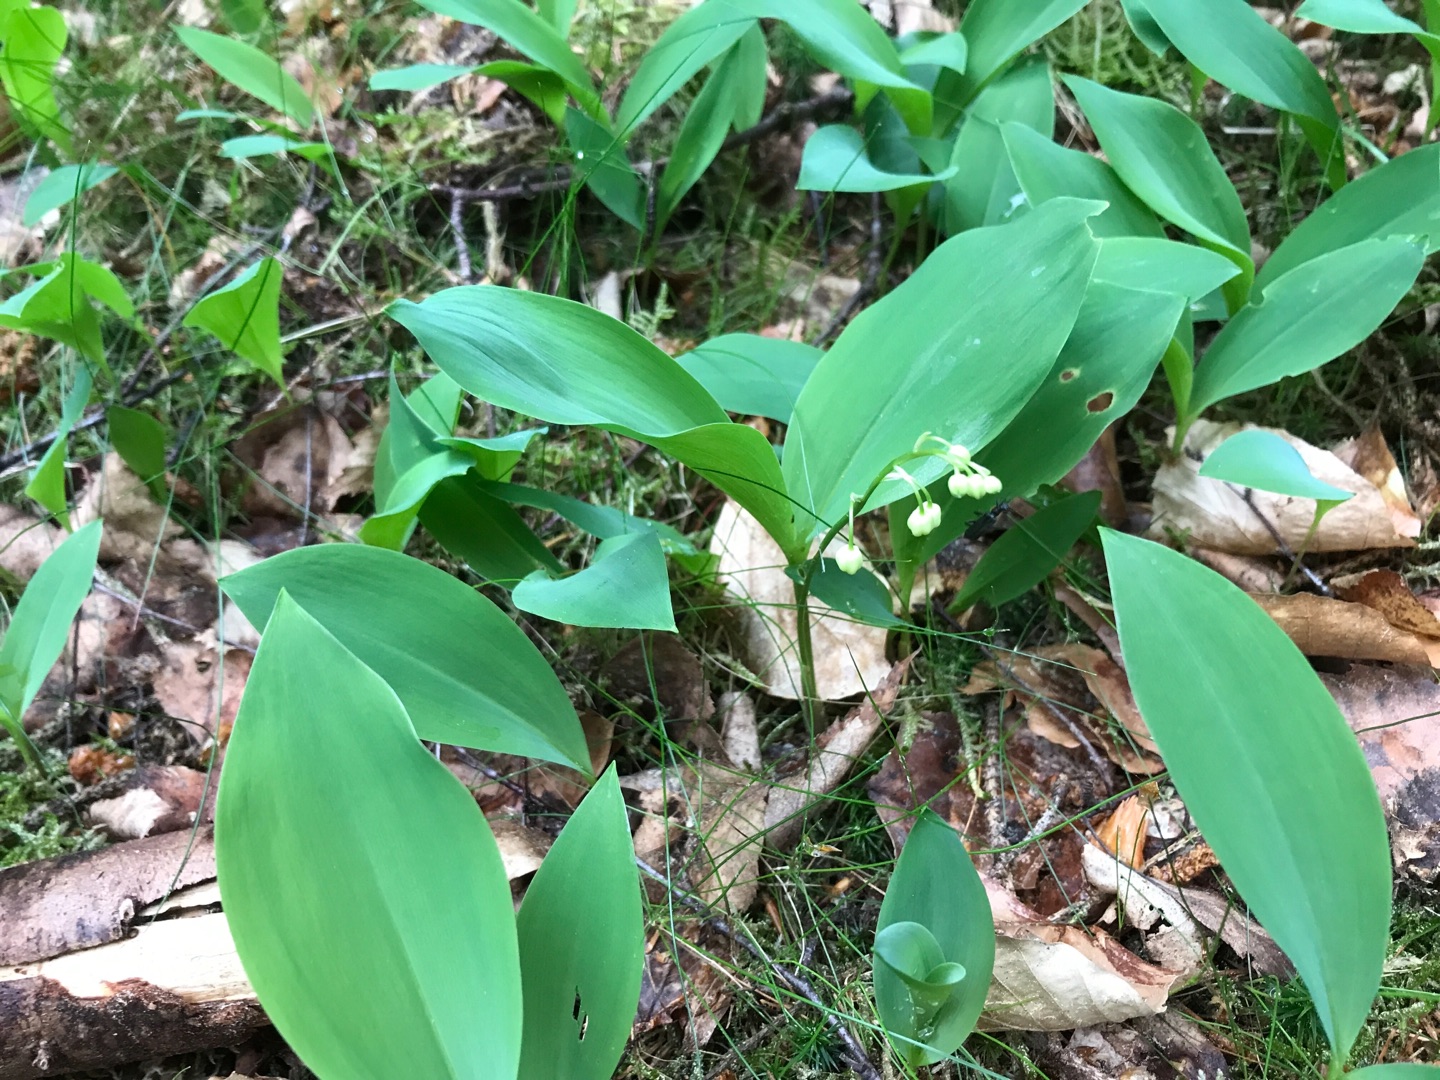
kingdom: Plantae
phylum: Tracheophyta
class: Liliopsida
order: Asparagales
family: Asparagaceae
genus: Convallaria
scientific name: Convallaria majalis
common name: Liljekonval
